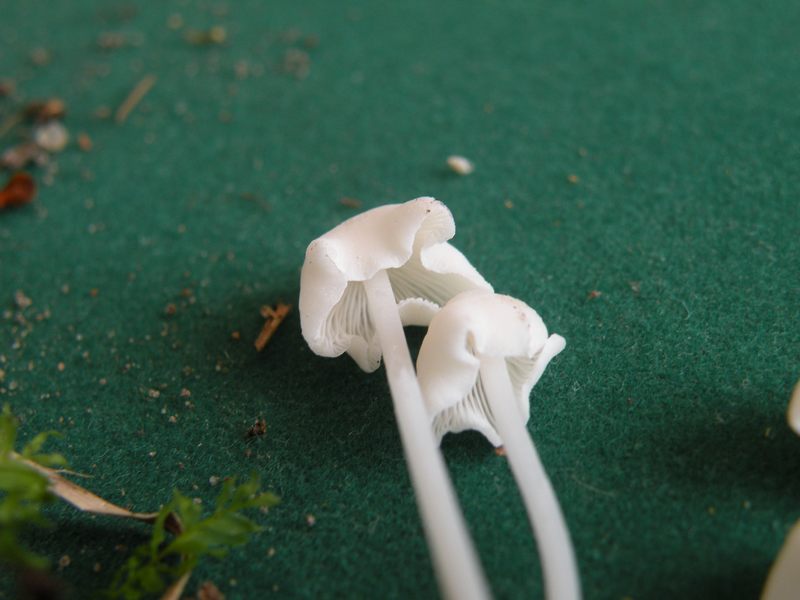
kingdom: Fungi
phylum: Basidiomycota
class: Agaricomycetes
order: Agaricales
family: Mycenaceae
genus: Hemimycena
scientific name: Hemimycena cucullata
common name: tætbladet huesvamp
